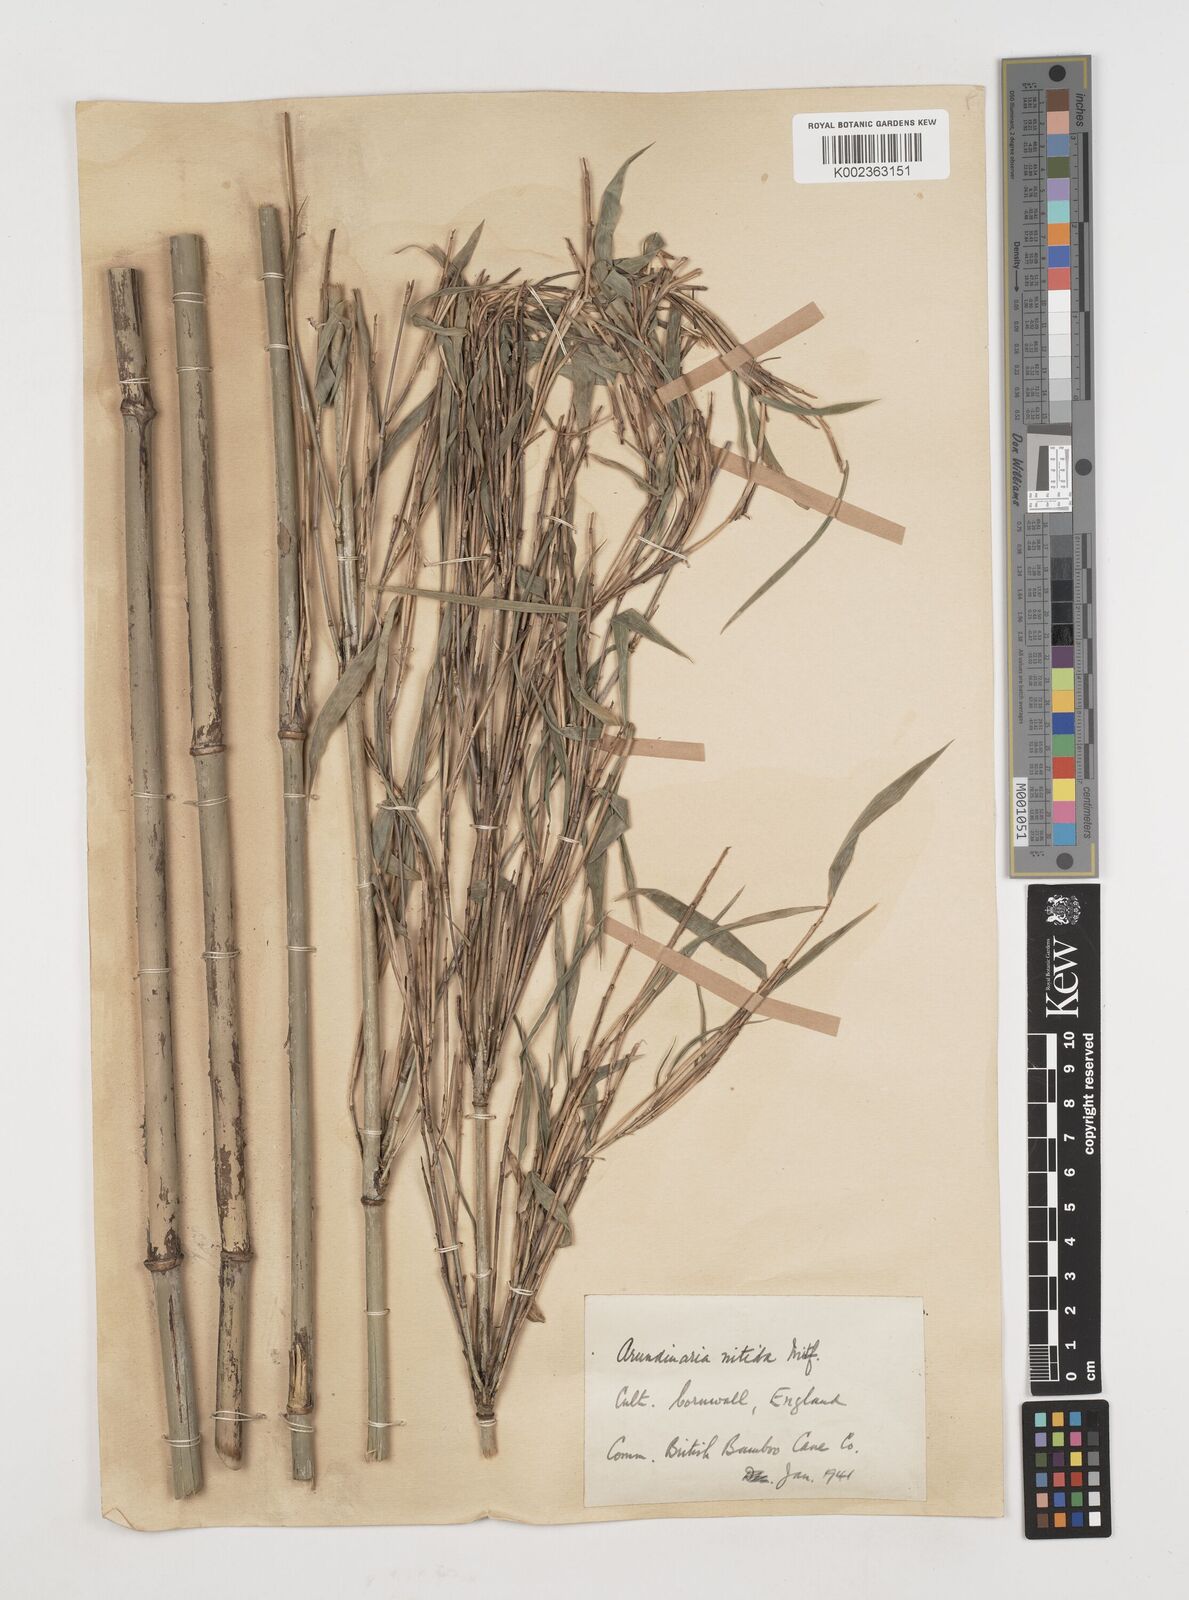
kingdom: Plantae
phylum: Tracheophyta
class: Liliopsida
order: Poales
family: Poaceae
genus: Fargesia
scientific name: Fargesia
